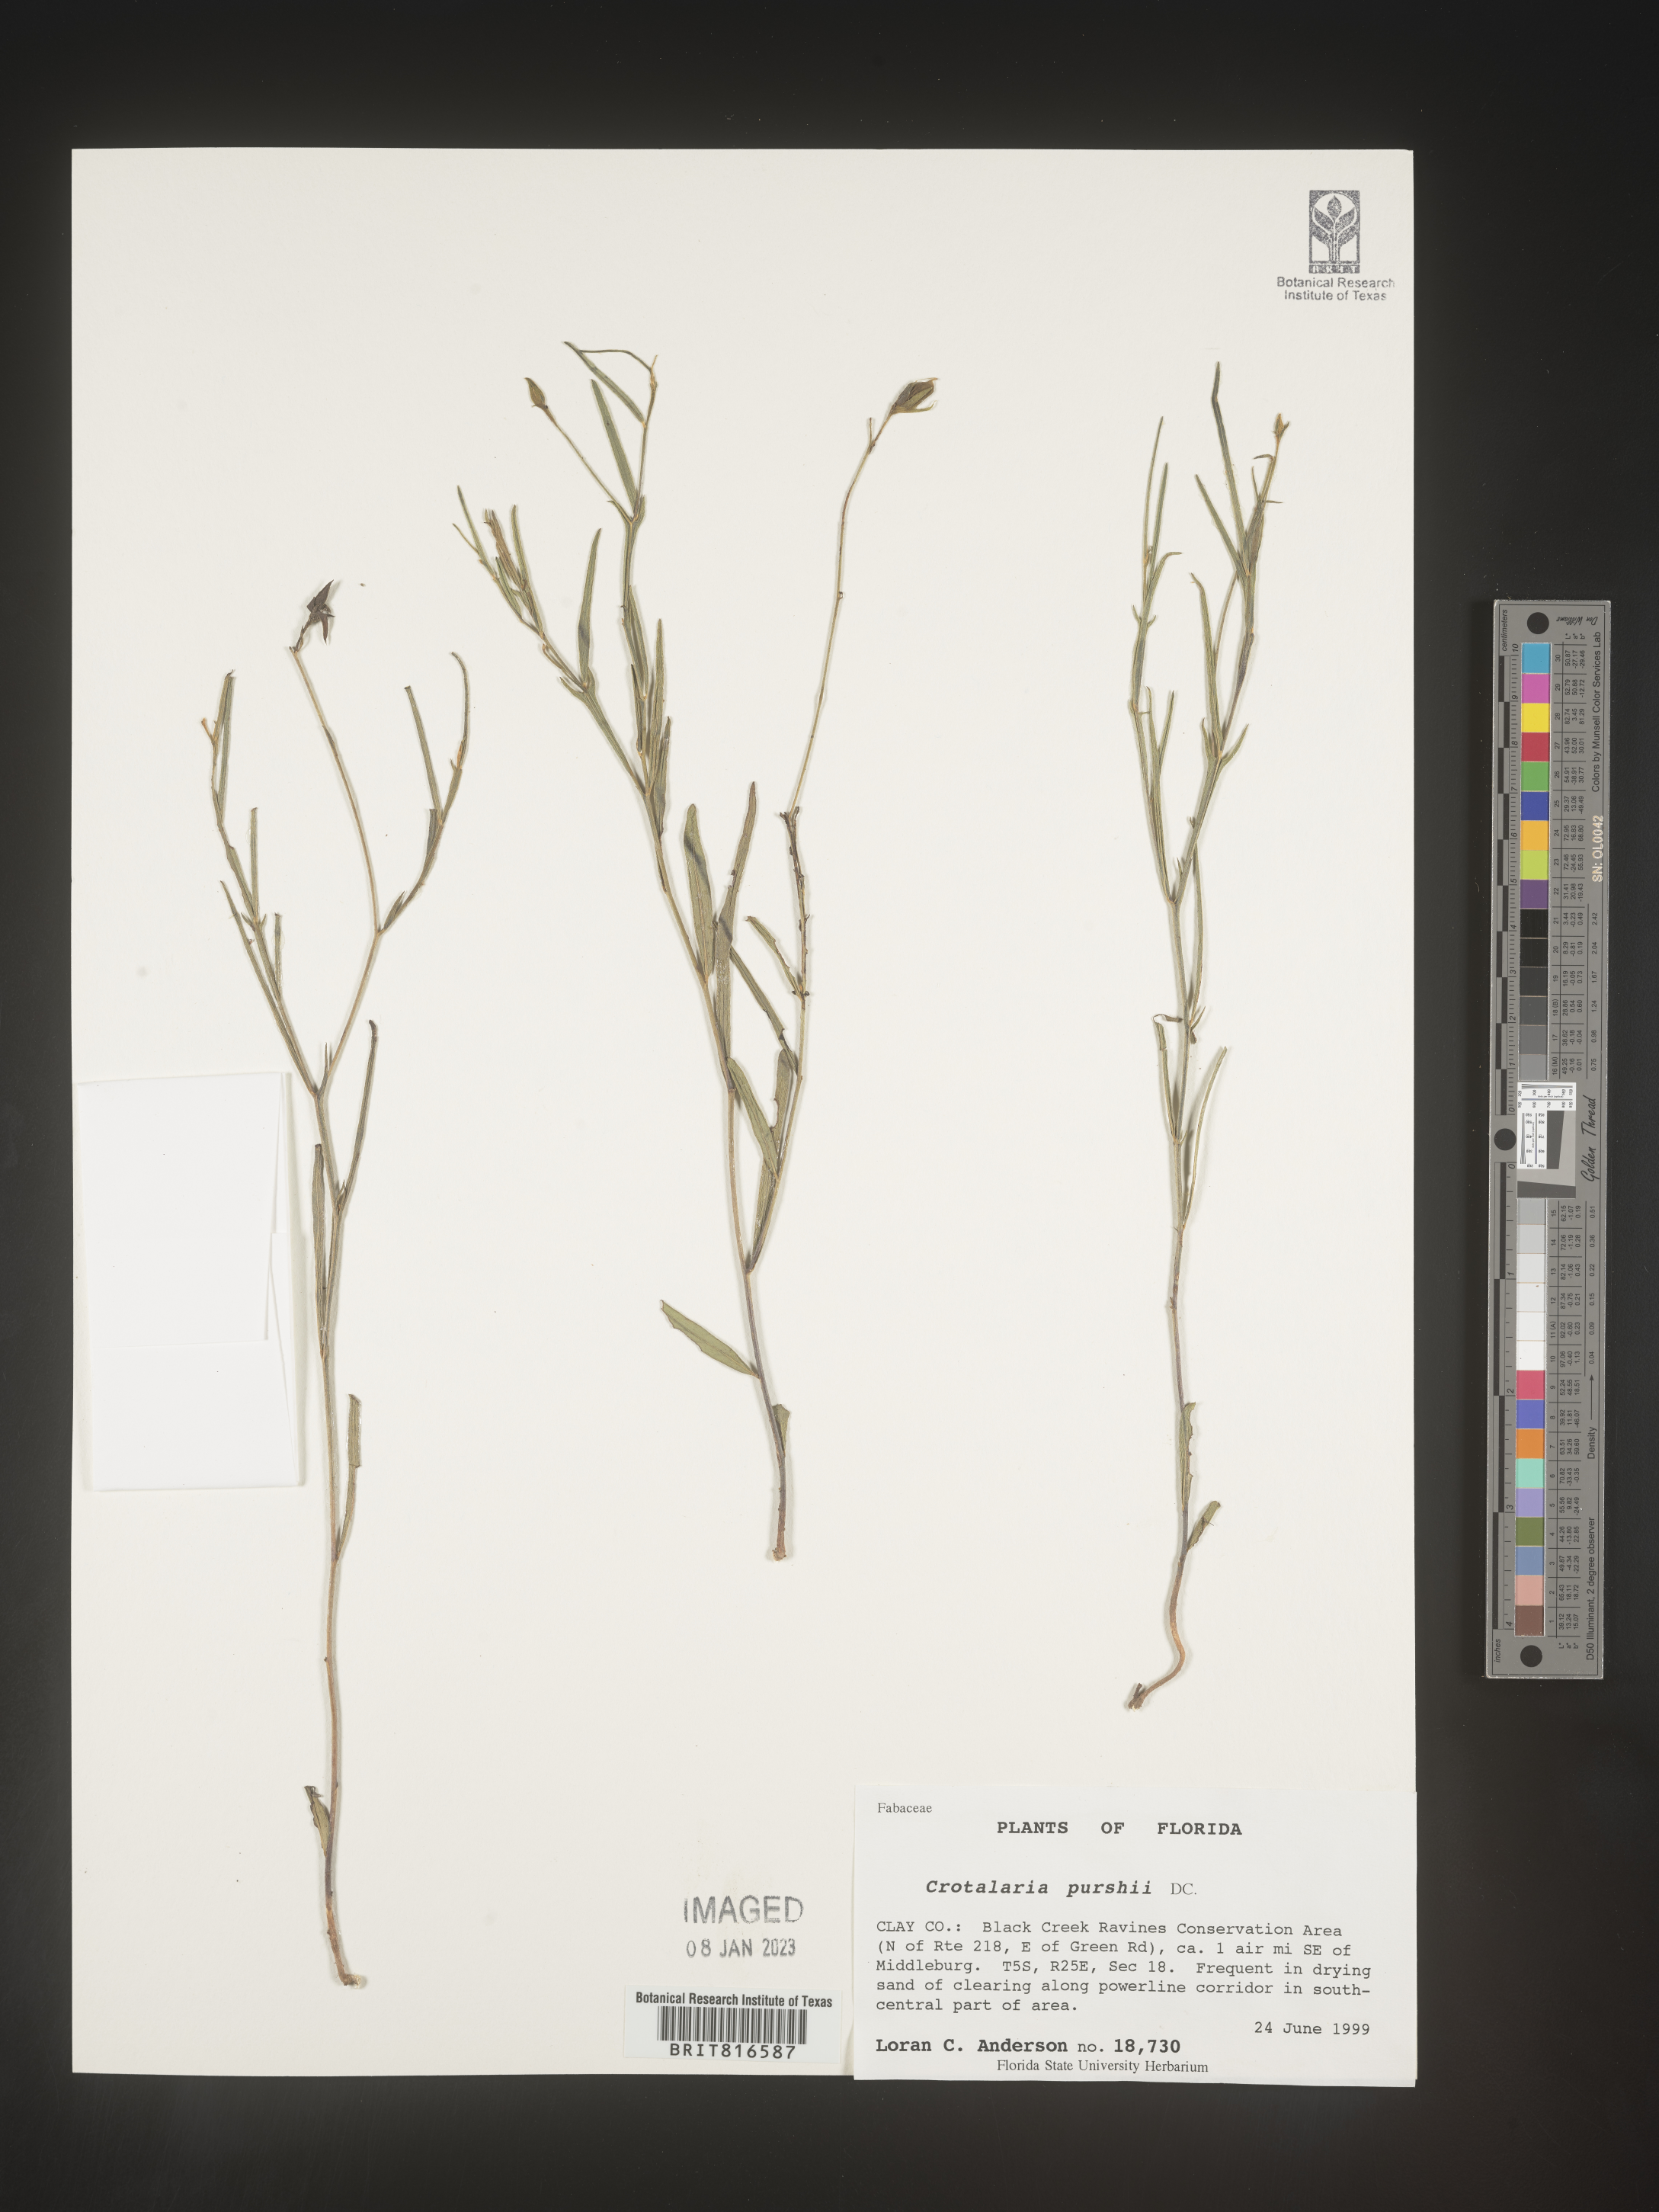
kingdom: Plantae
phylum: Tracheophyta
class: Magnoliopsida
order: Fabales
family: Fabaceae
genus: Crotalaria
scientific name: Crotalaria purshii
